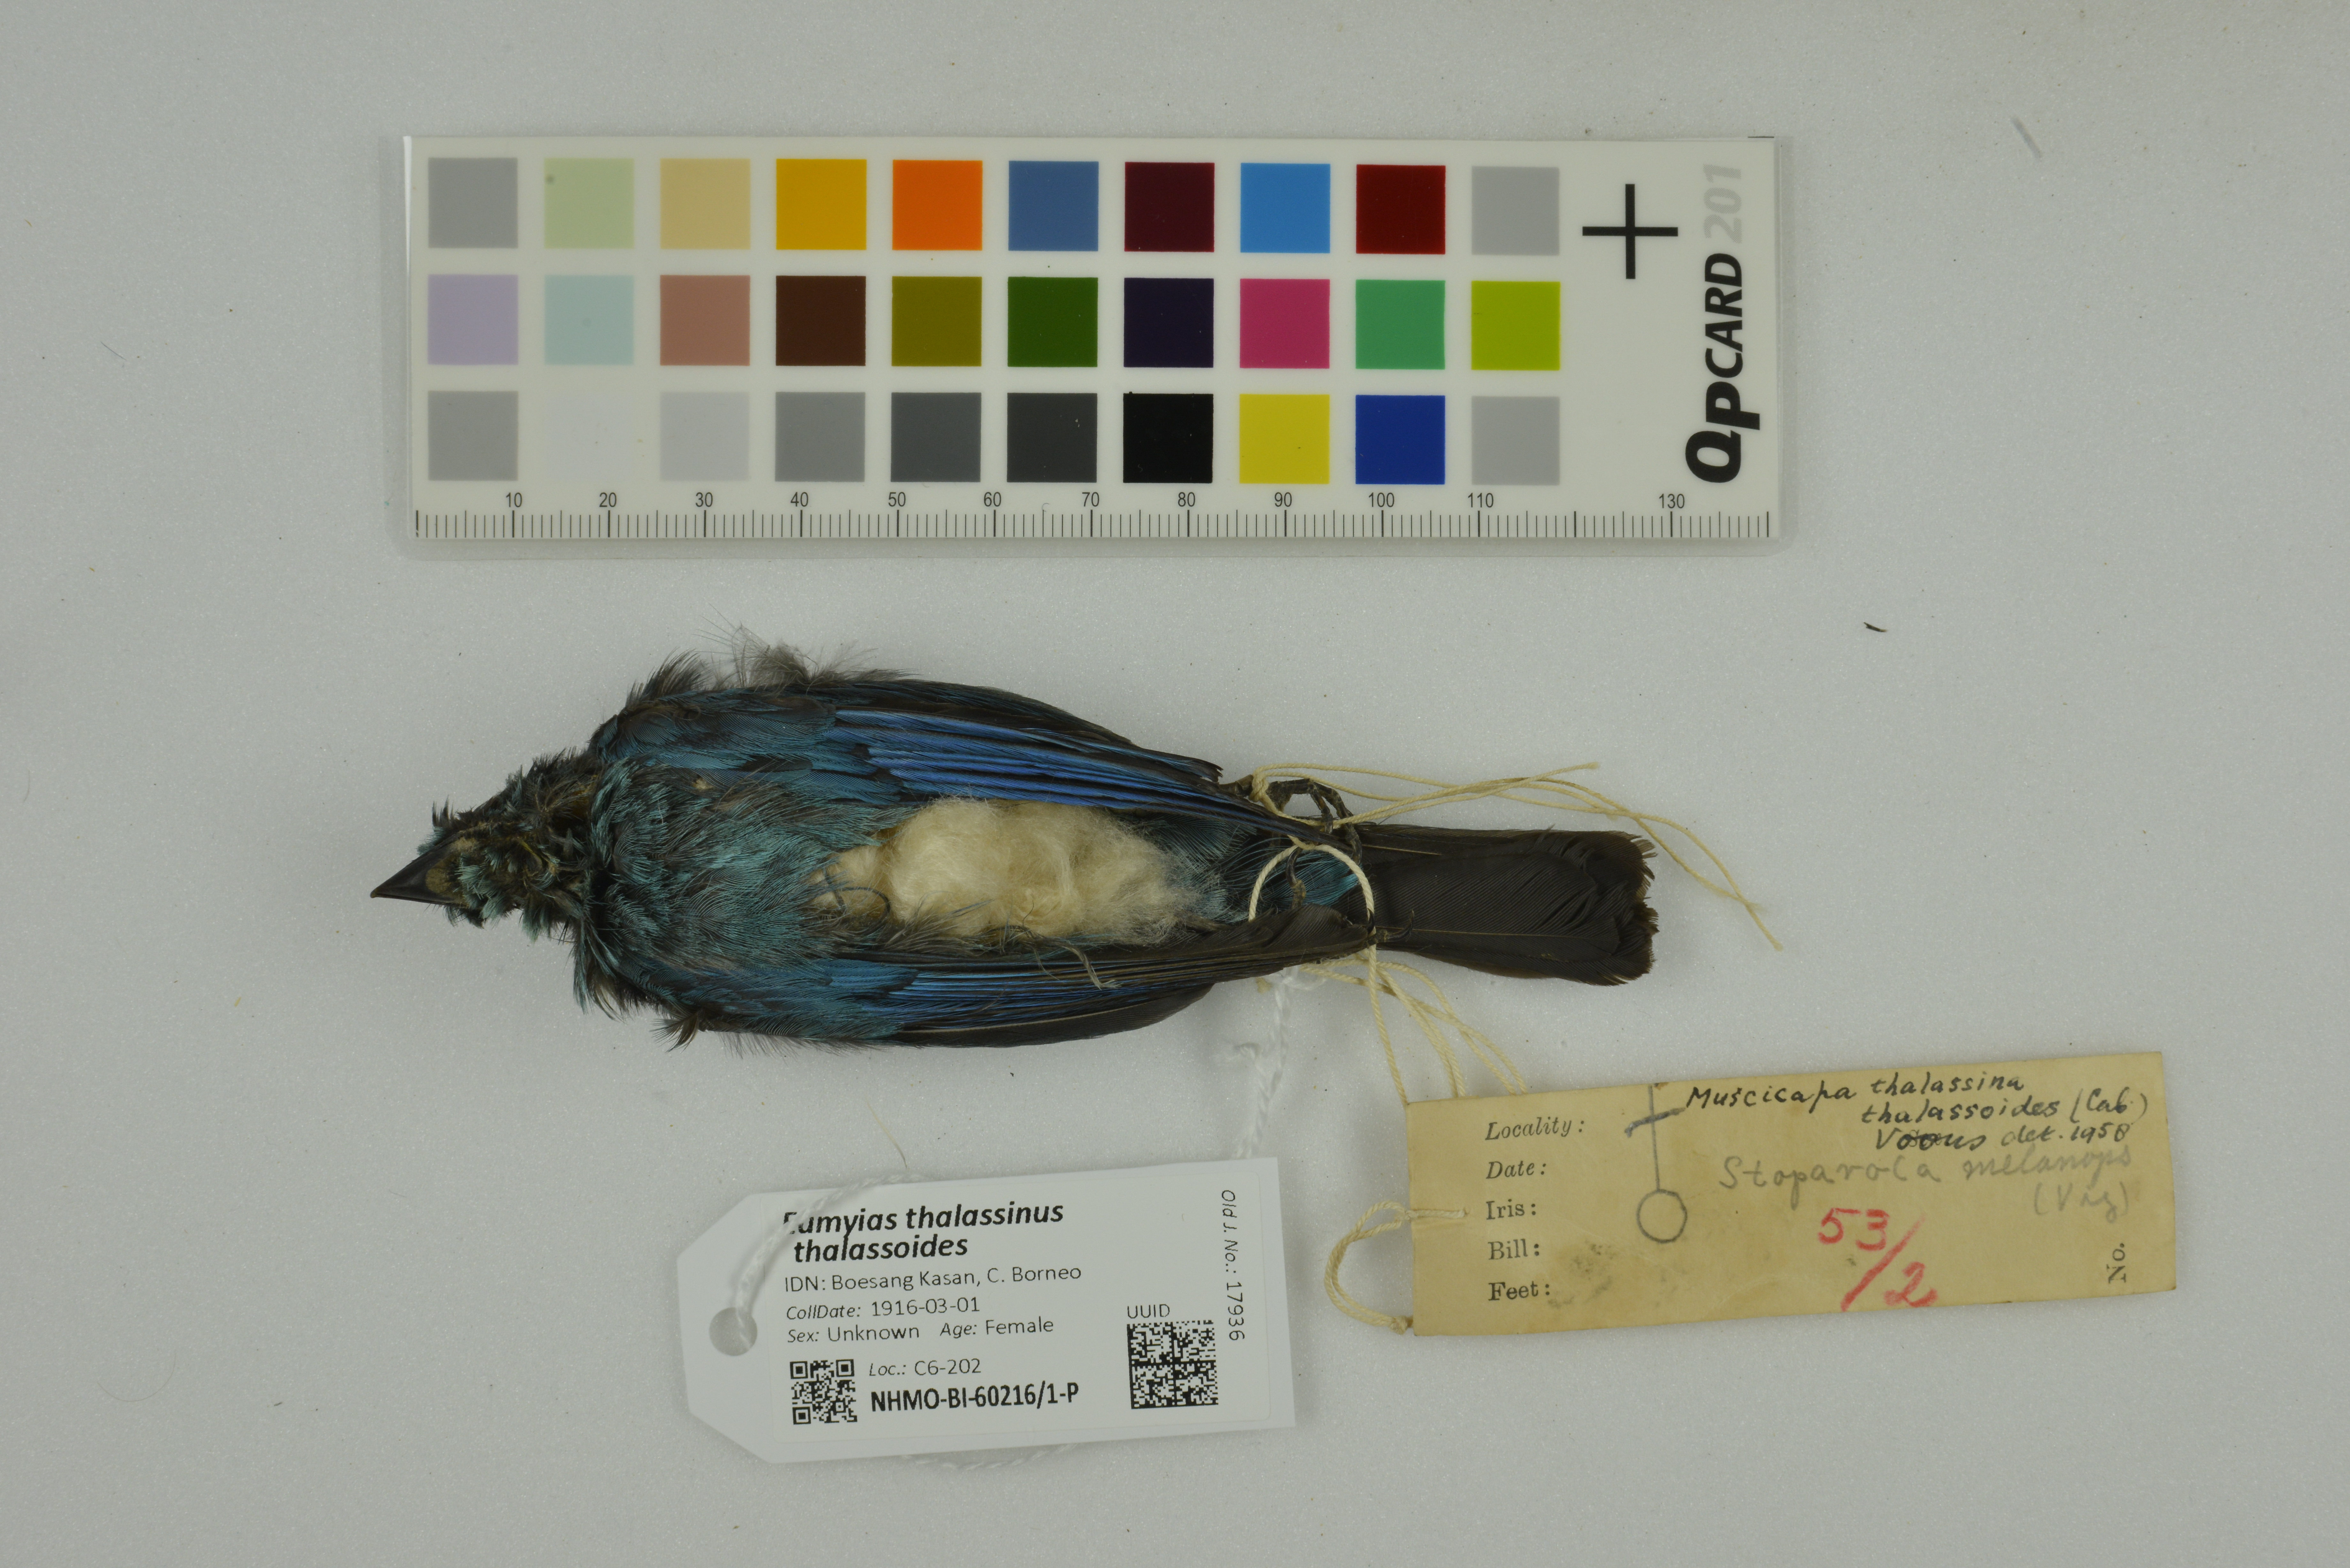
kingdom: Animalia
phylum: Chordata
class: Aves
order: Passeriformes
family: Muscicapidae
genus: Eumyias
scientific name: Eumyias thalassinus
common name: Verditer flycatcher
